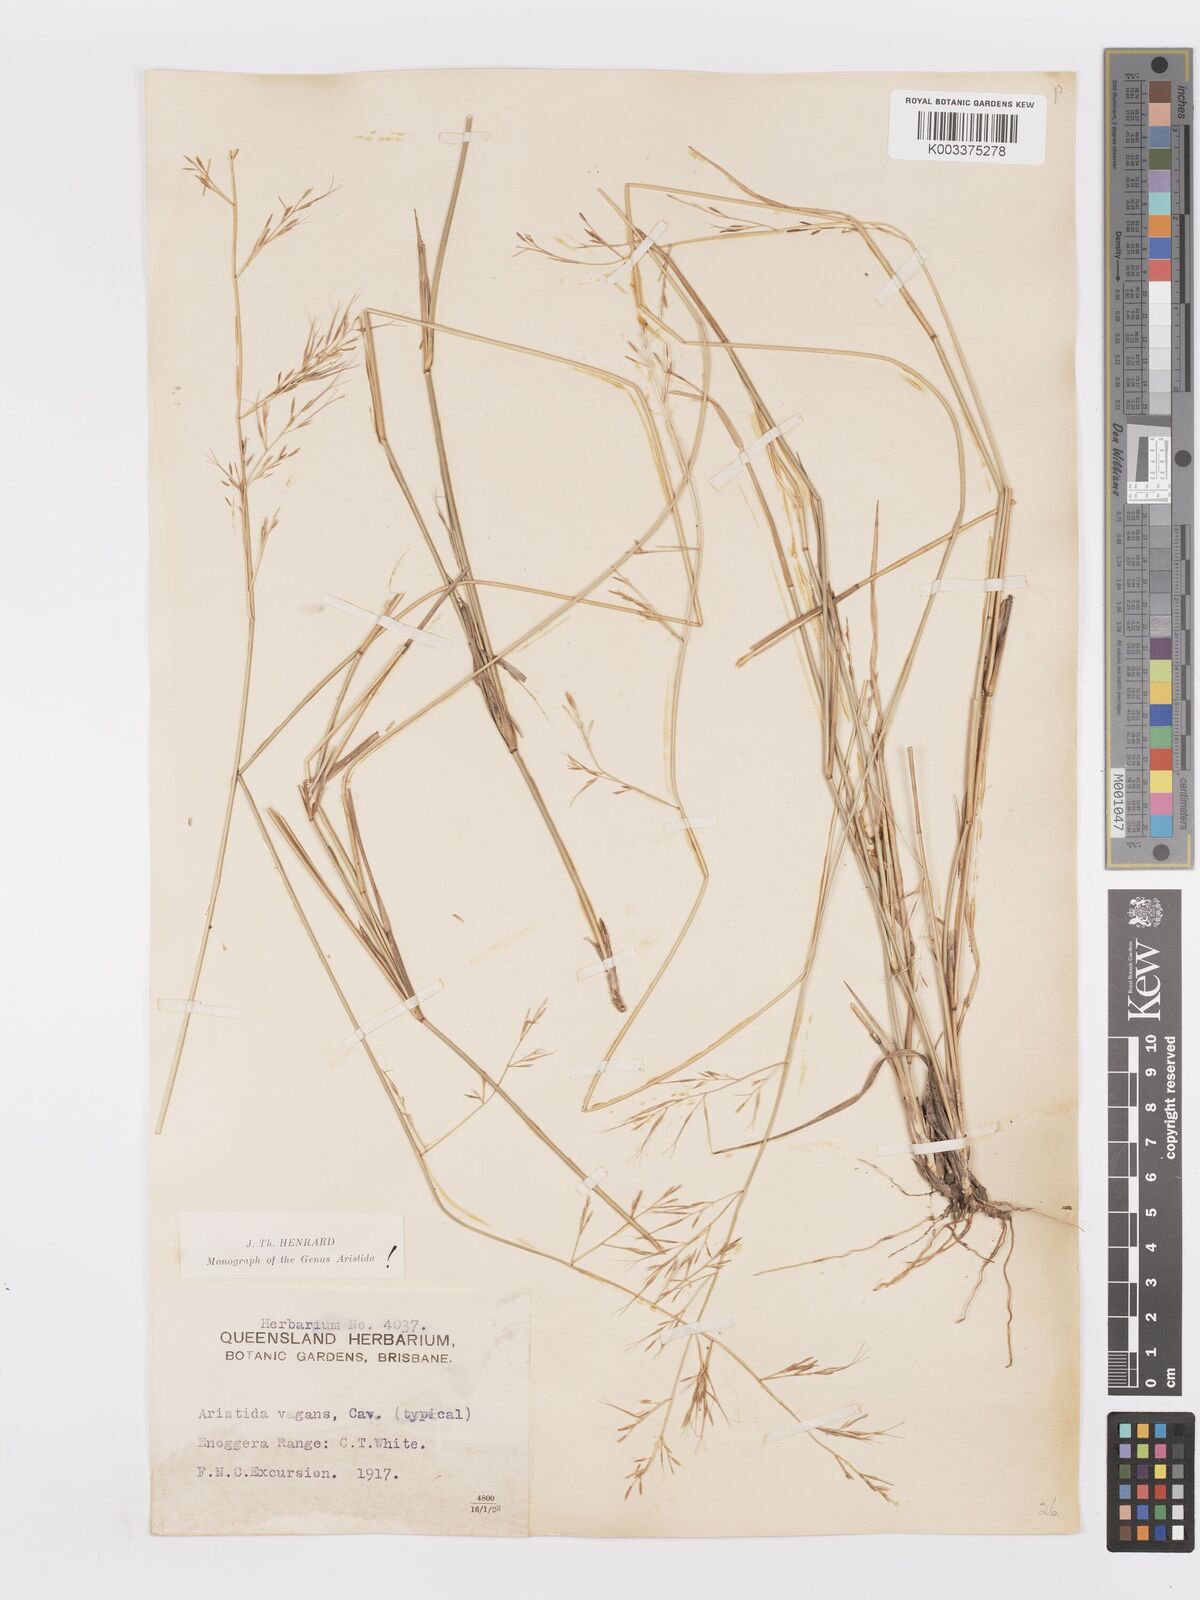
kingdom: Plantae
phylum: Tracheophyta
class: Liliopsida
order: Poales
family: Poaceae
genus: Aristida
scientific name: Aristida vagans
